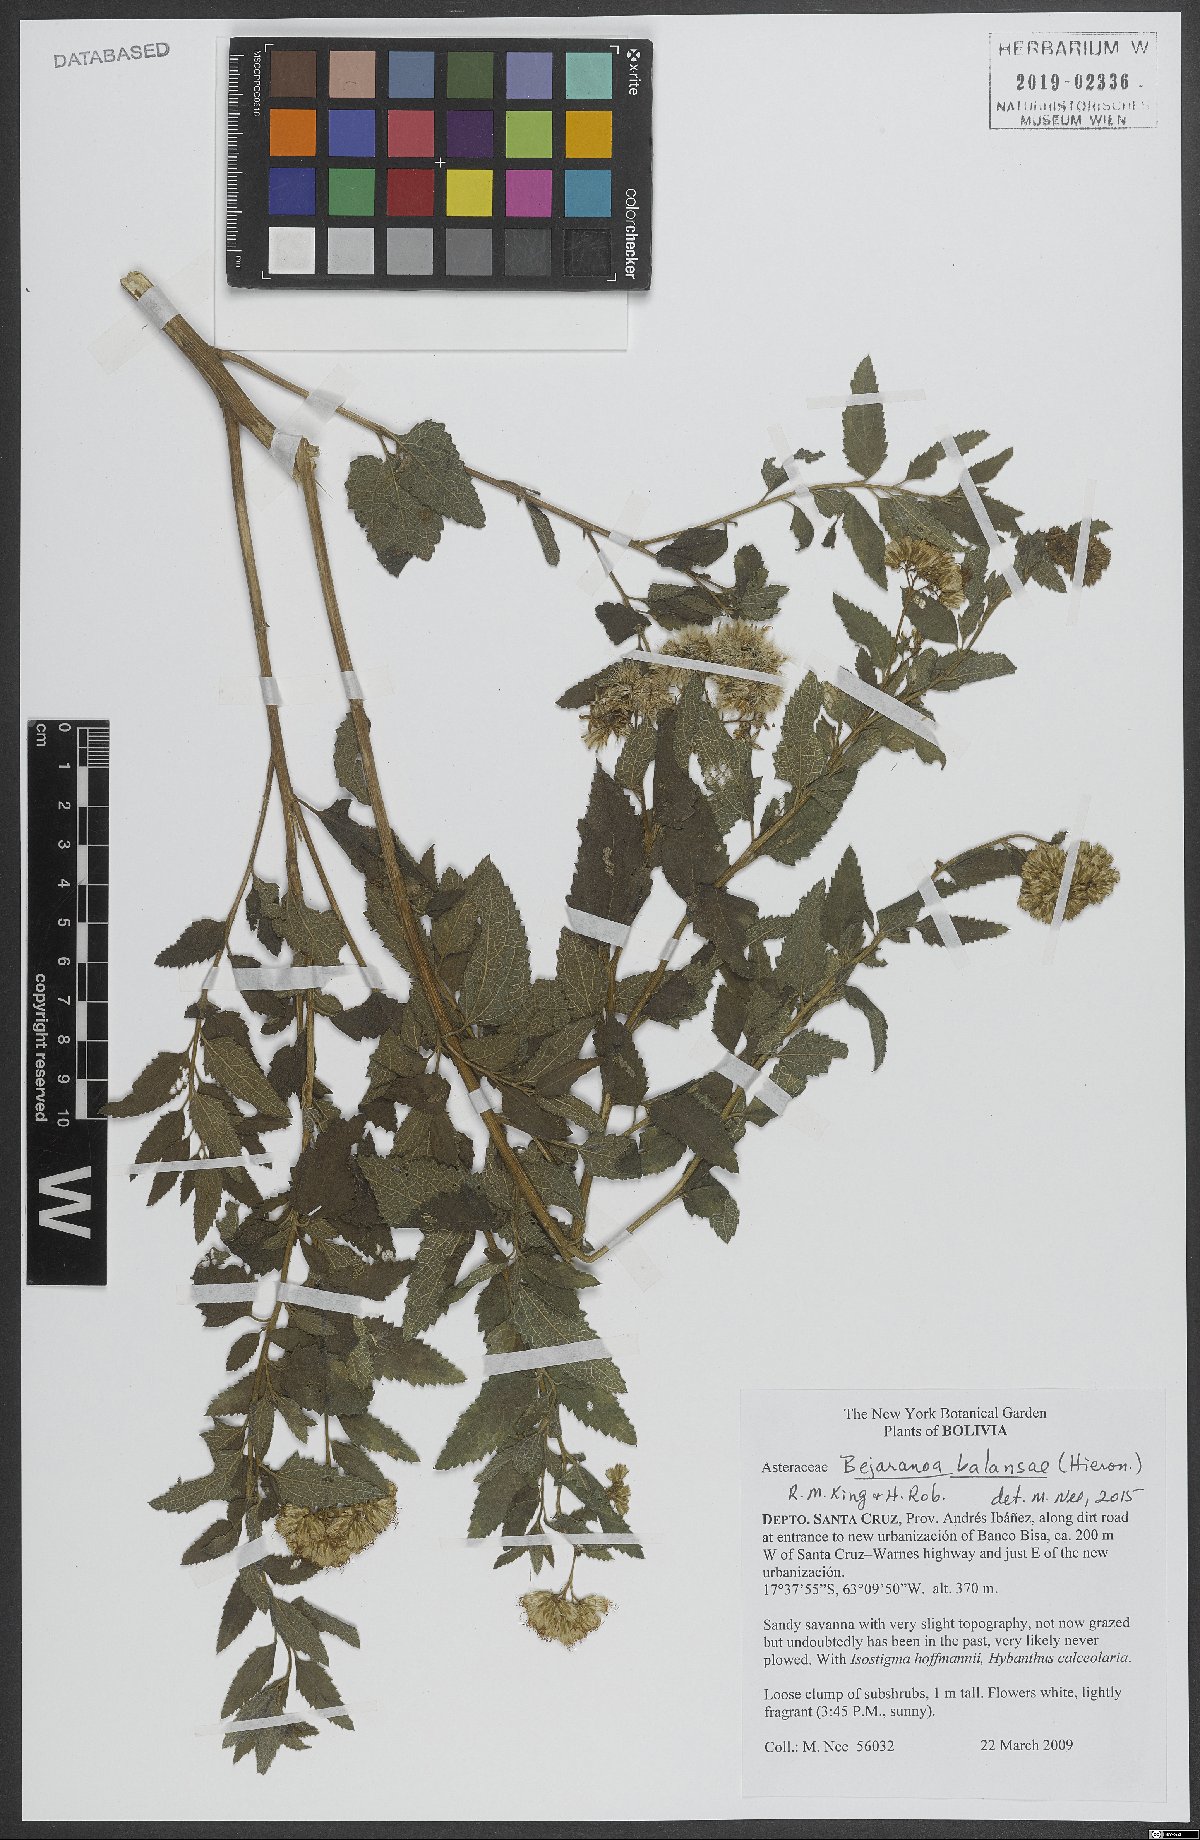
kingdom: Plantae
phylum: Tracheophyta
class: Magnoliopsida
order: Asterales
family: Asteraceae
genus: Bejaranoa
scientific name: Bejaranoa balansae
